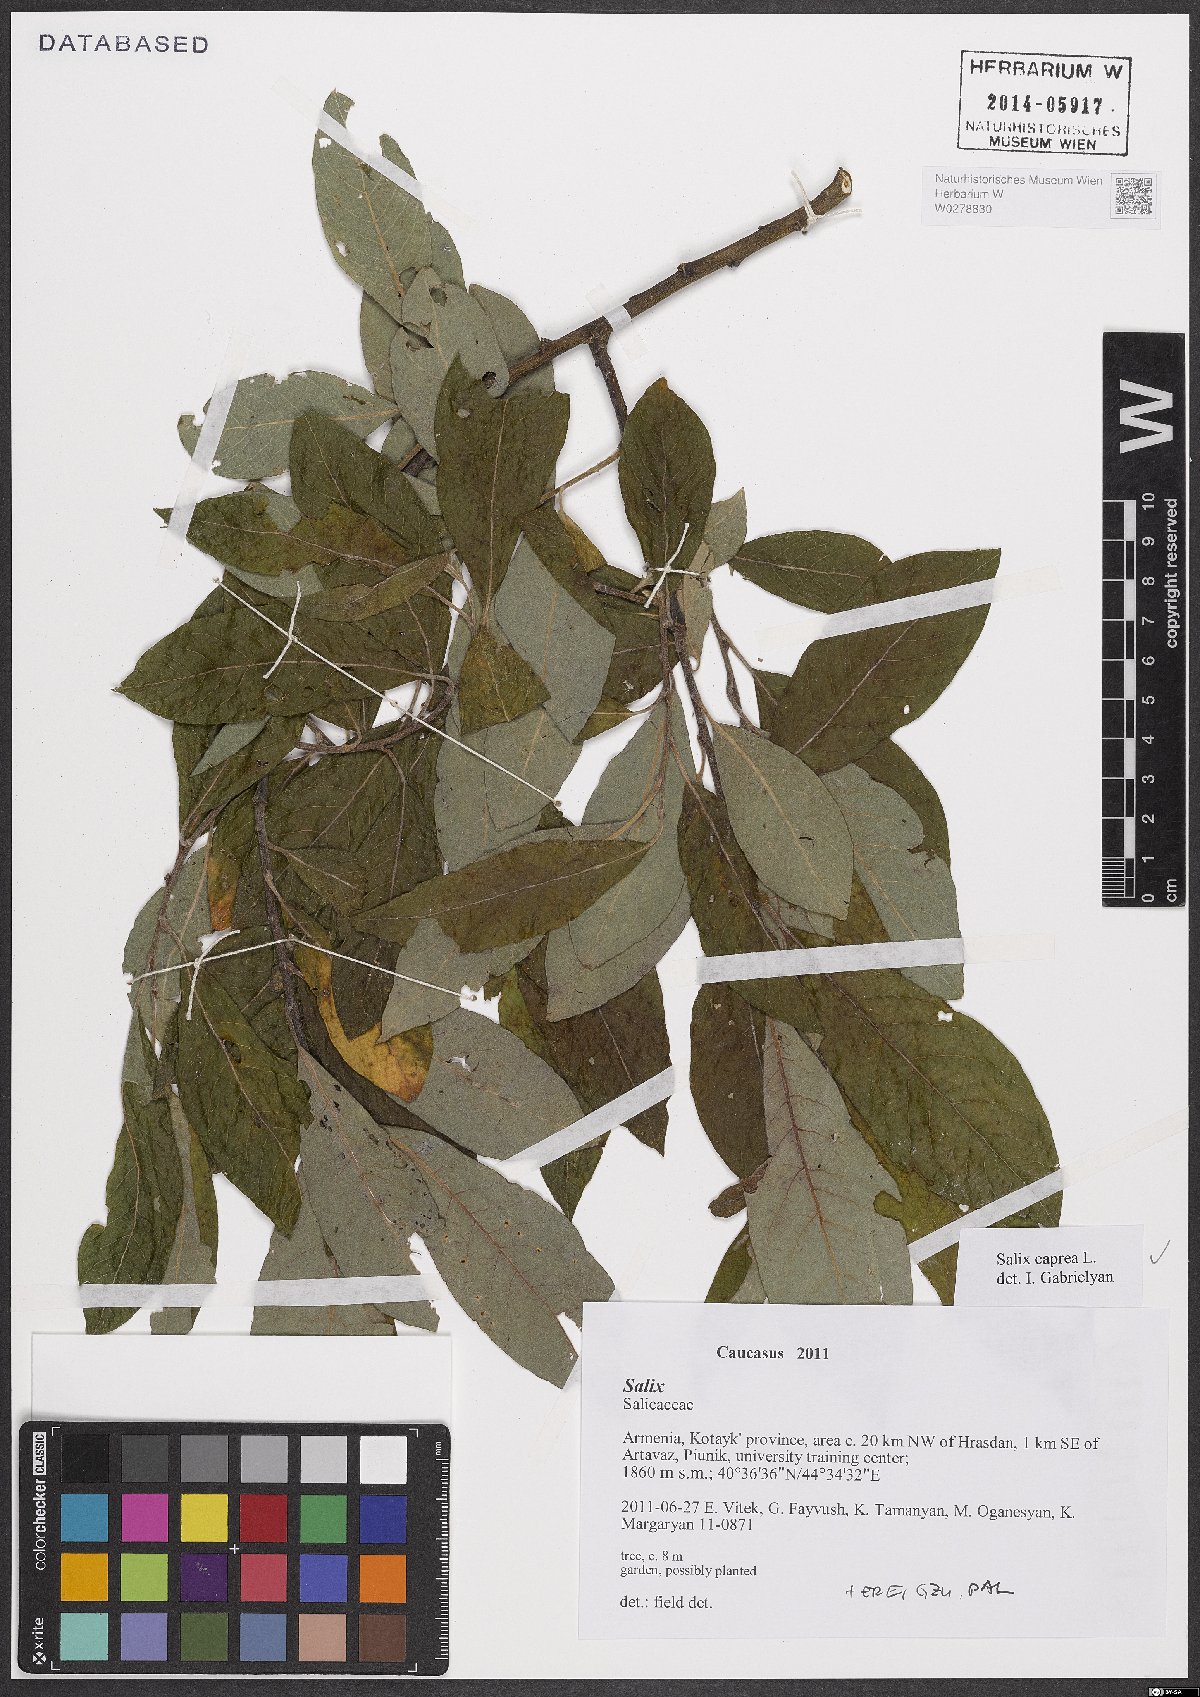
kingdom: Plantae
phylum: Tracheophyta
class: Magnoliopsida
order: Malpighiales
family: Salicaceae
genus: Salix
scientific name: Salix caprea
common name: Goat willow
